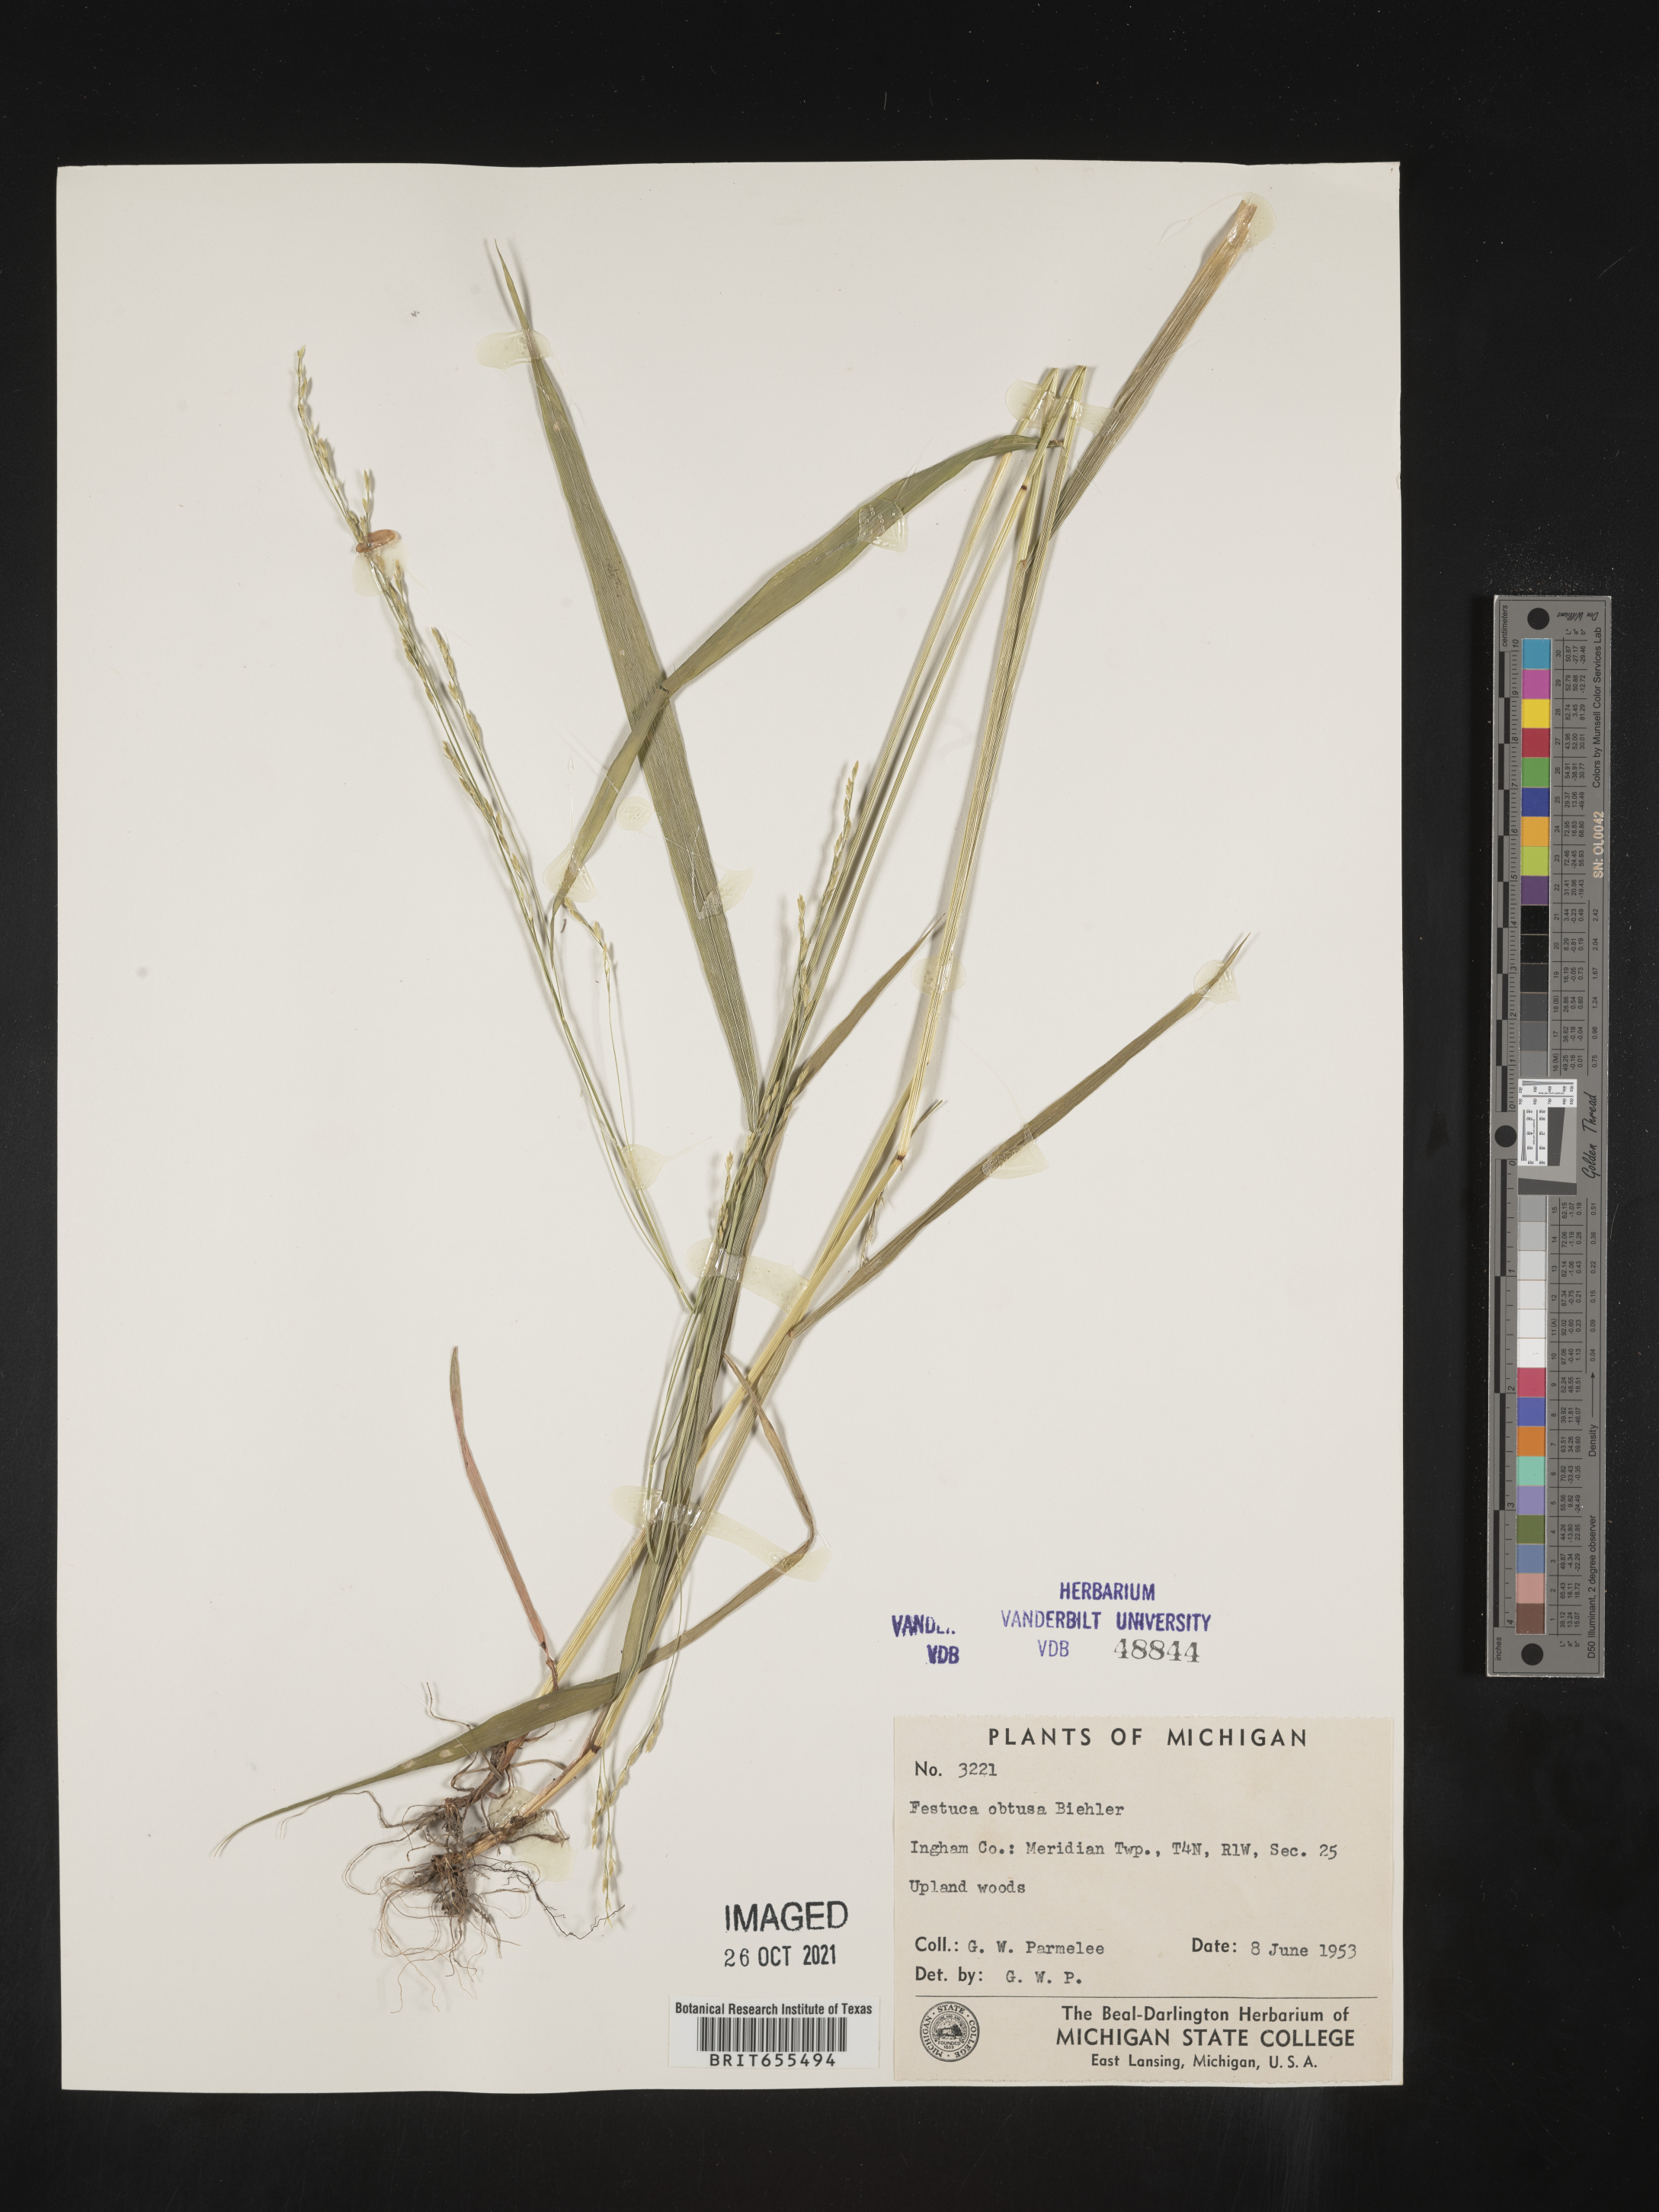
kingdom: Plantae
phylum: Tracheophyta
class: Liliopsida
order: Poales
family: Poaceae
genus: Festuca
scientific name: Festuca
